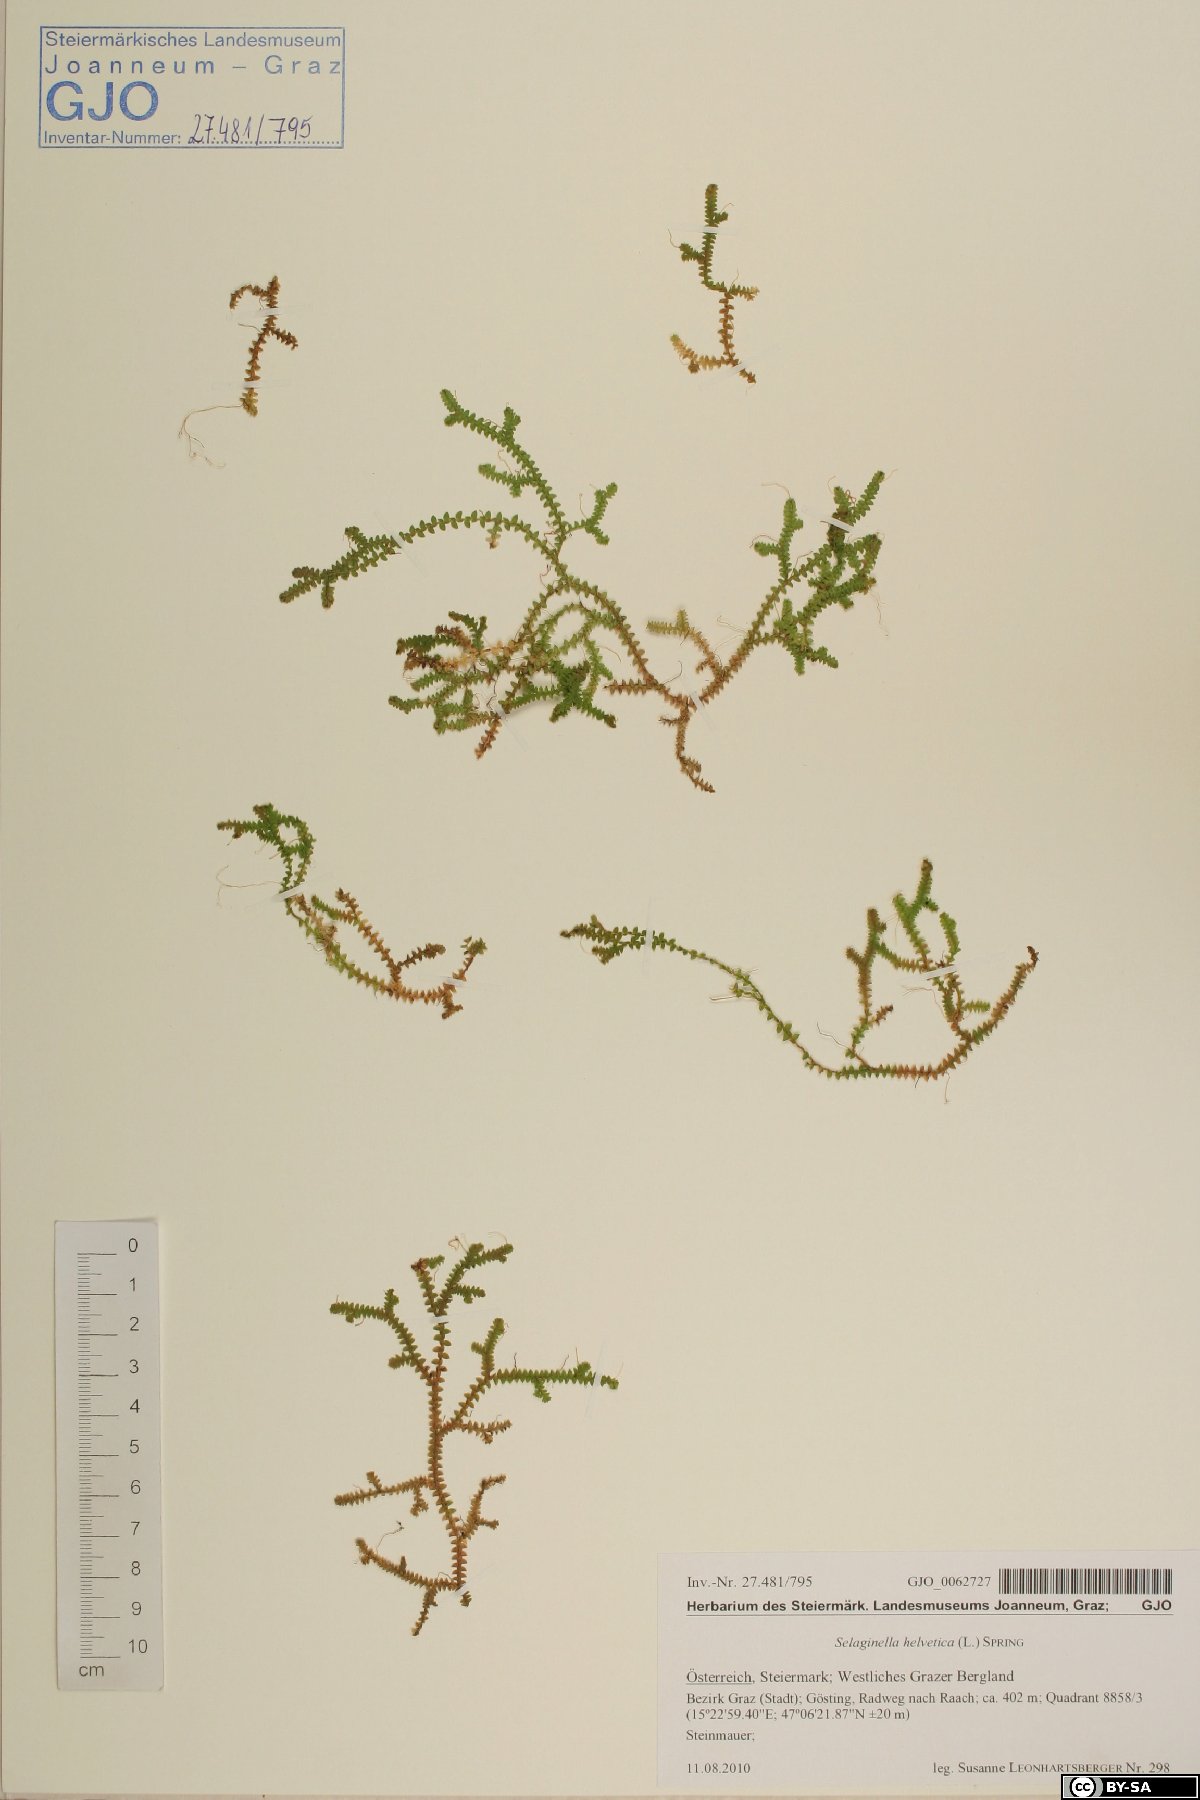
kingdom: Plantae
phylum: Tracheophyta
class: Lycopodiopsida
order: Selaginellales
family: Selaginellaceae
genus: Selaginella
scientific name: Selaginella helvetica
